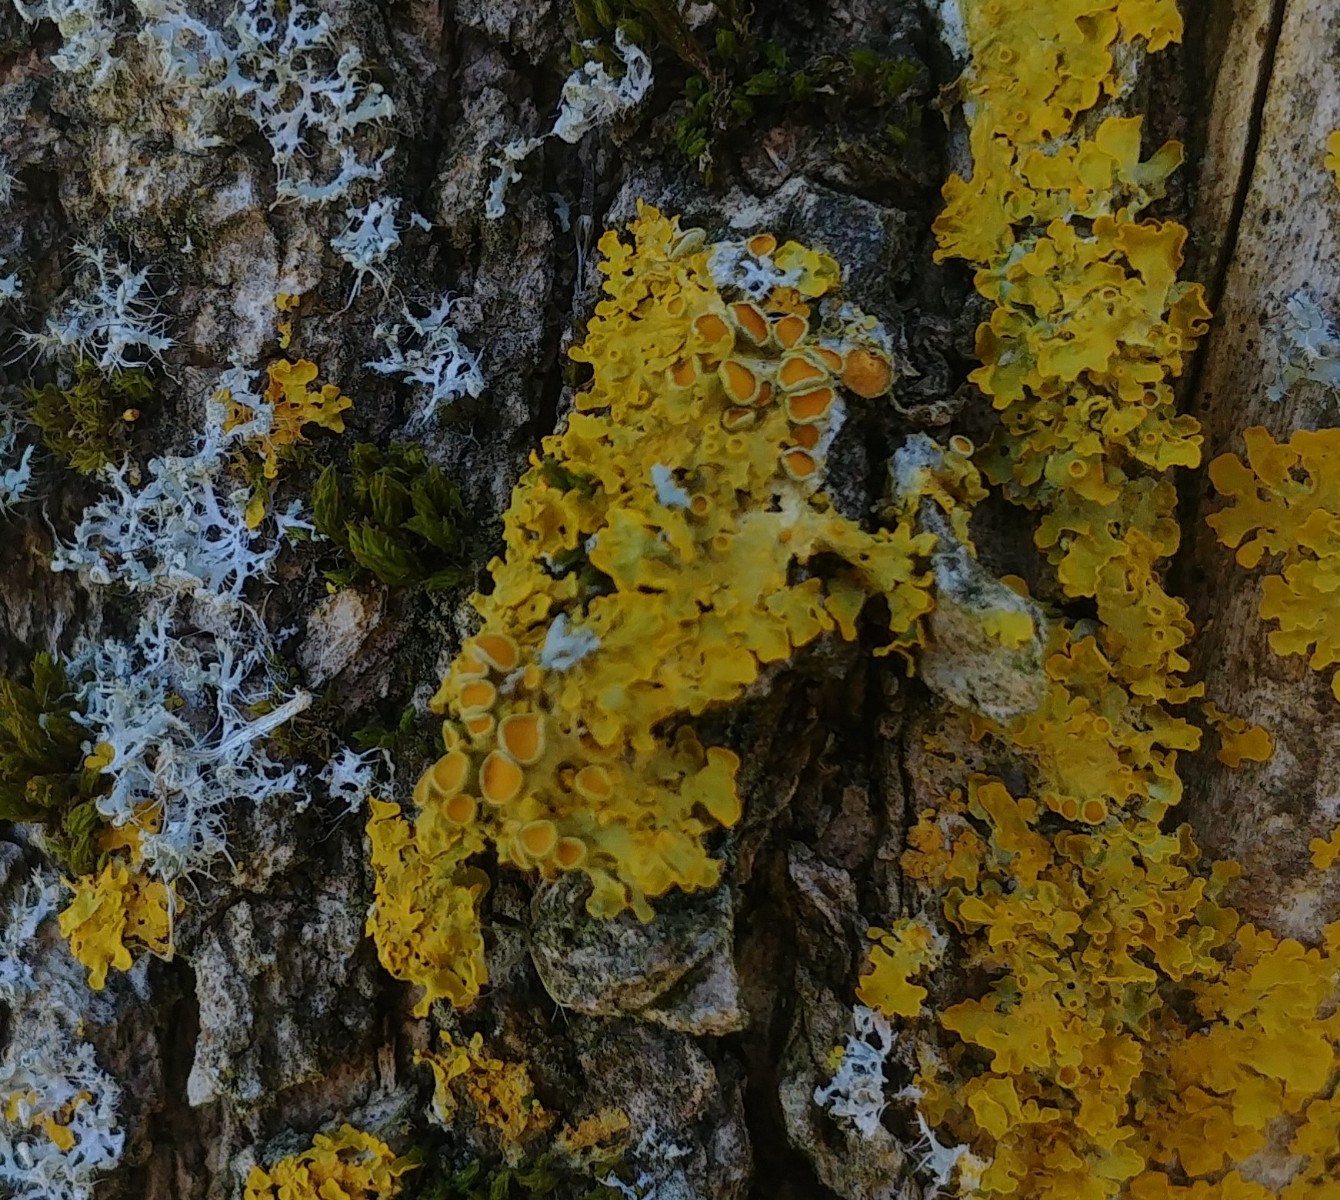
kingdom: Fungi
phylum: Ascomycota
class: Lecanoromycetes
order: Teloschistales
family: Teloschistaceae
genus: Xanthoria
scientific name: Xanthoria parietina
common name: almindelig væggelav
